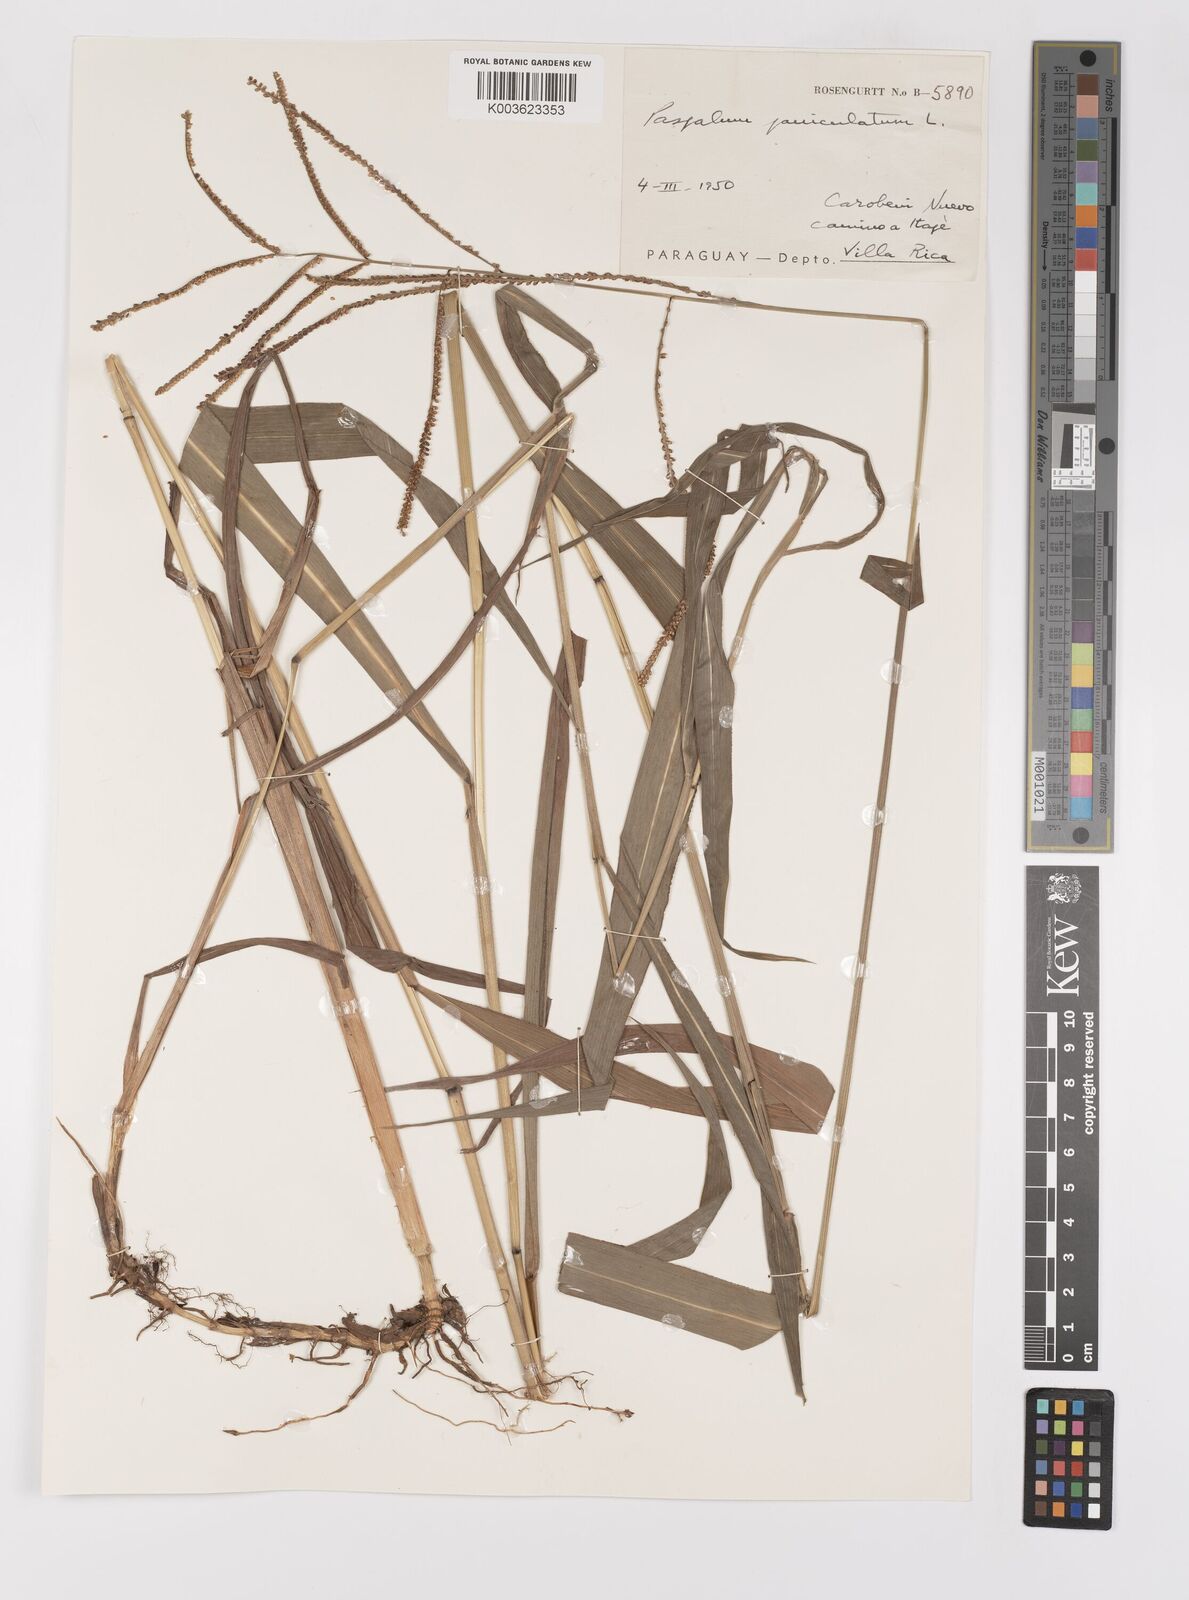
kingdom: Plantae
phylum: Tracheophyta
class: Liliopsida
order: Poales
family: Poaceae
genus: Paspalum
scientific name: Paspalum juergensii
